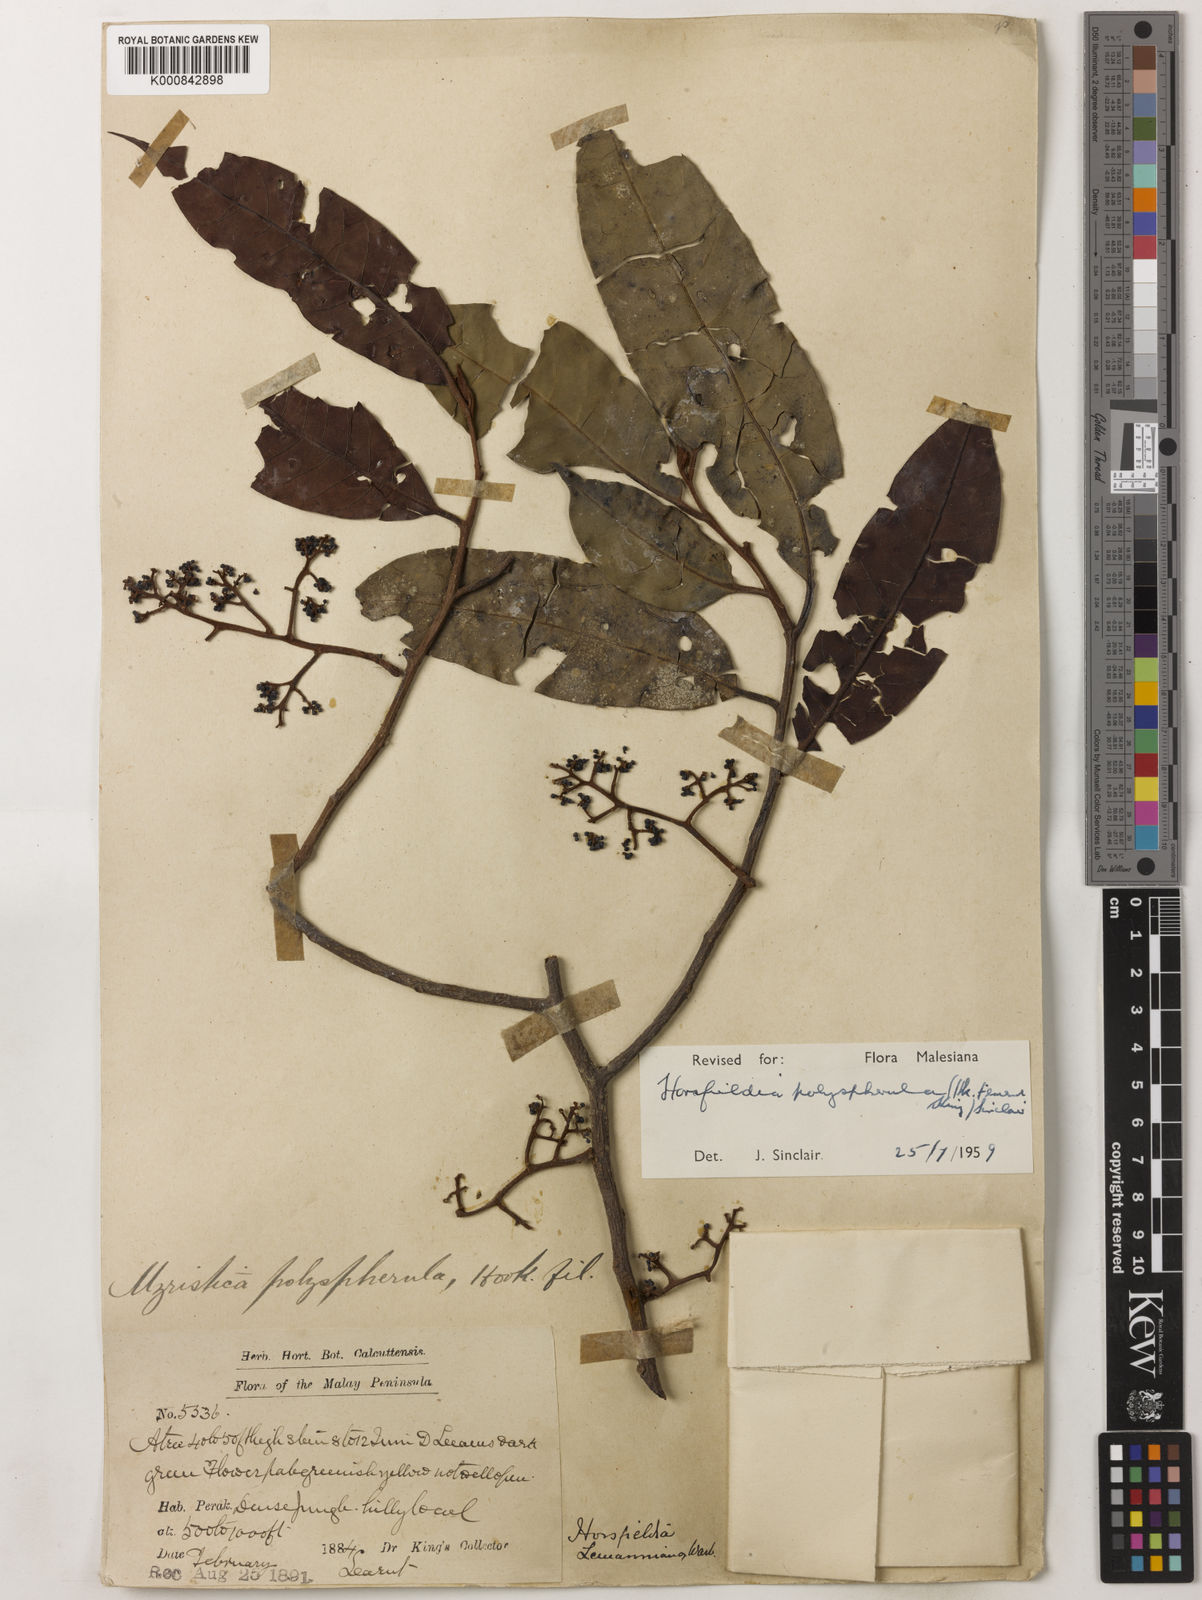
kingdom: Plantae
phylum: Tracheophyta
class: Magnoliopsida
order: Magnoliales
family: Myristicaceae
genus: Horsfieldia
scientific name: Horsfieldia
